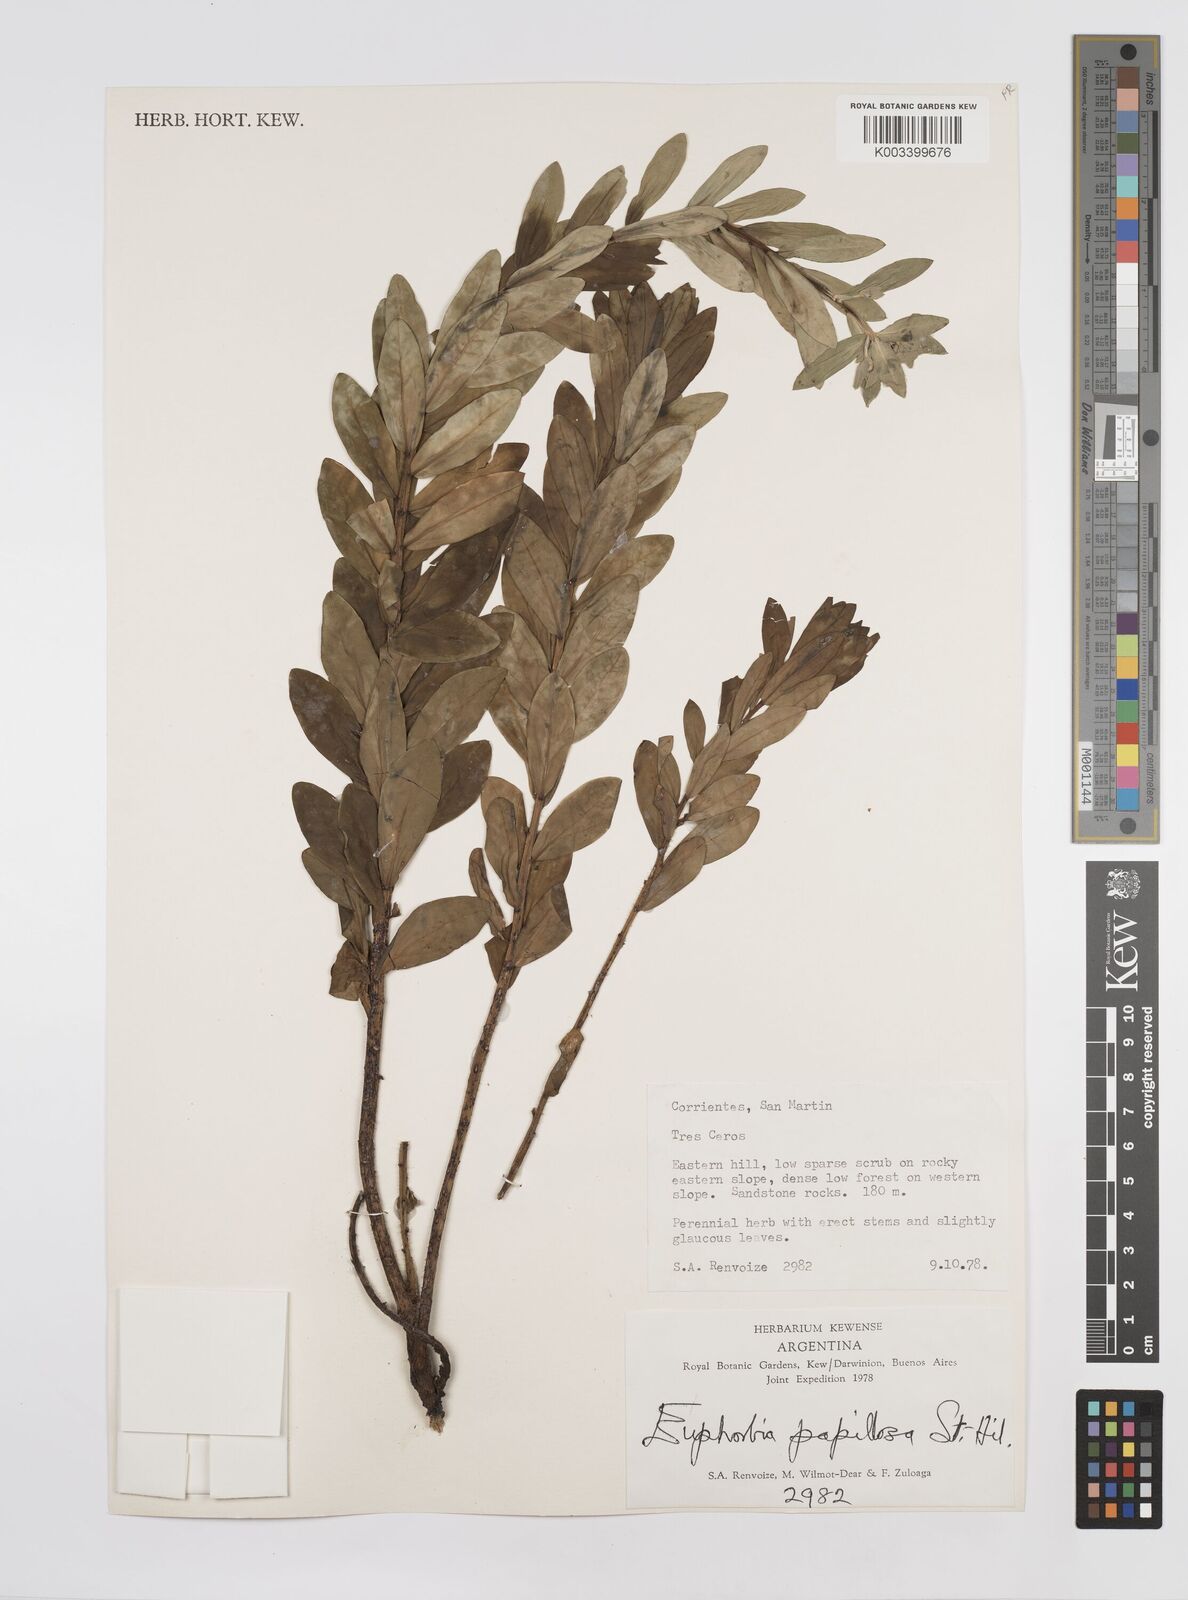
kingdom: Plantae
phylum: Tracheophyta
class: Magnoliopsida
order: Malpighiales
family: Euphorbiaceae
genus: Euphorbia
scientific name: Euphorbia
